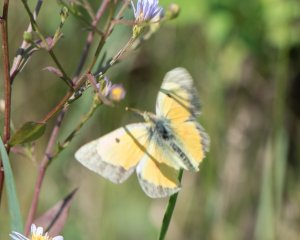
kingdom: Animalia
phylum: Arthropoda
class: Insecta
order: Lepidoptera
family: Pieridae
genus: Colias
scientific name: Colias eurytheme
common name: Orange Sulphur
